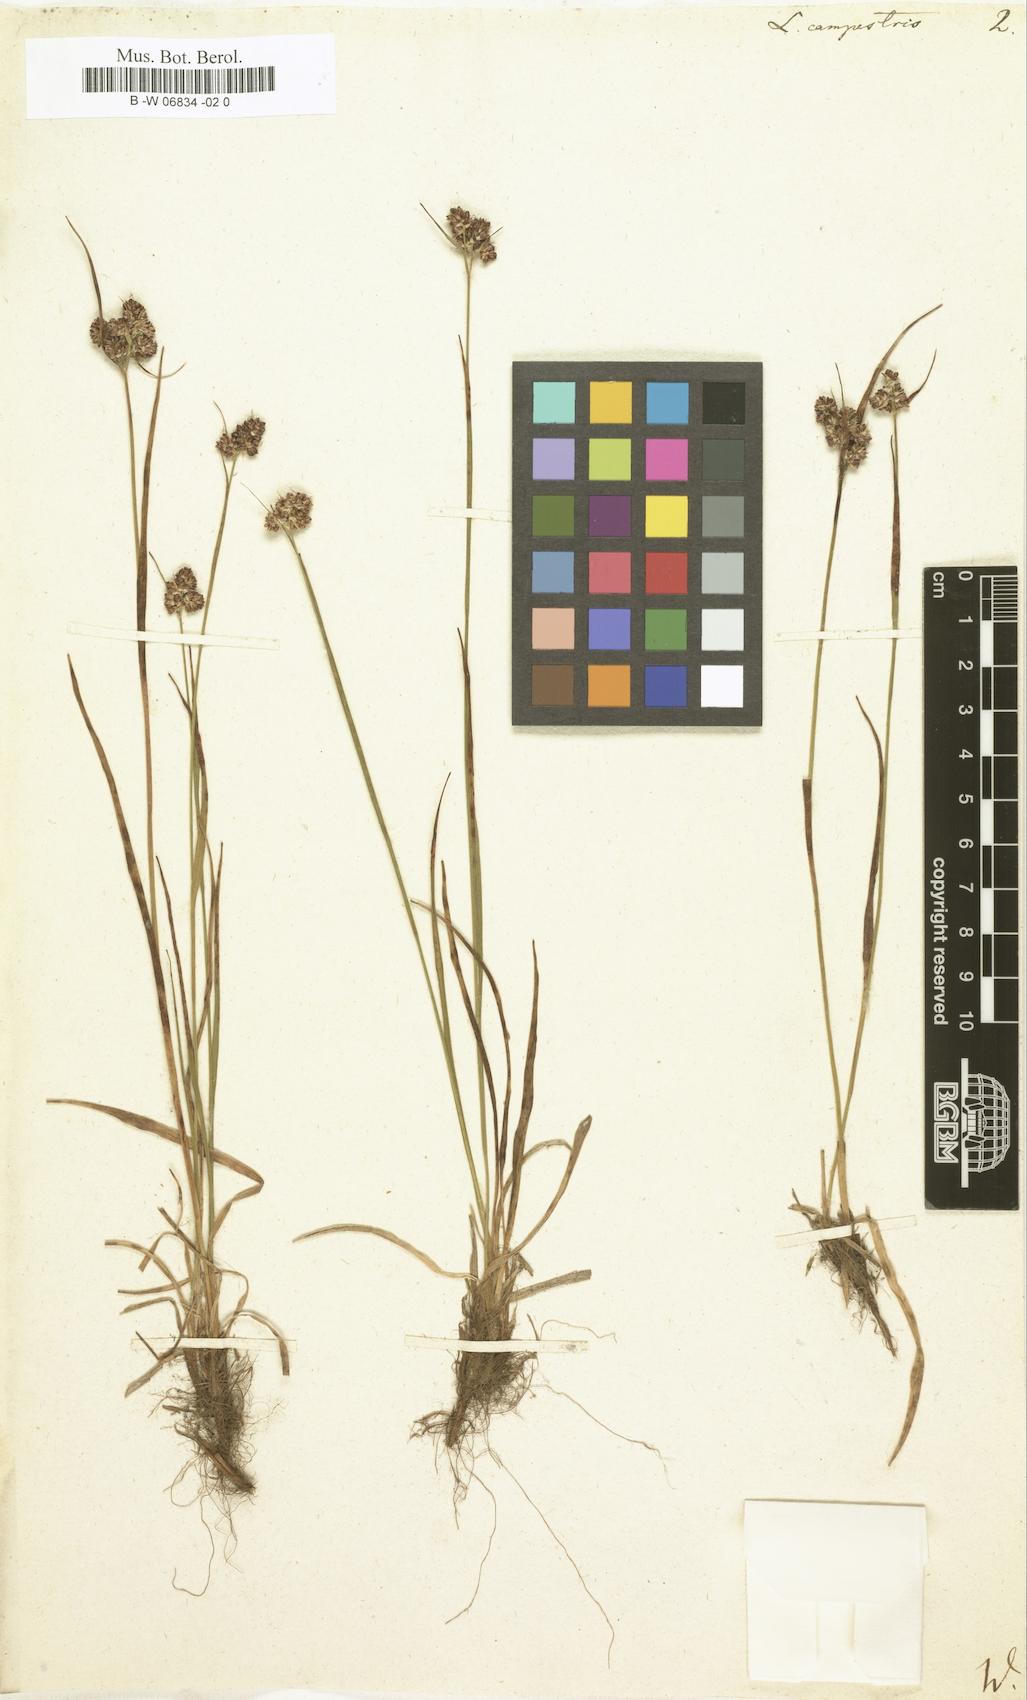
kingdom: Plantae
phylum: Tracheophyta
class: Liliopsida
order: Poales
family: Juncaceae
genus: Luzula
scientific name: Luzula campestris
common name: Field wood-rush
